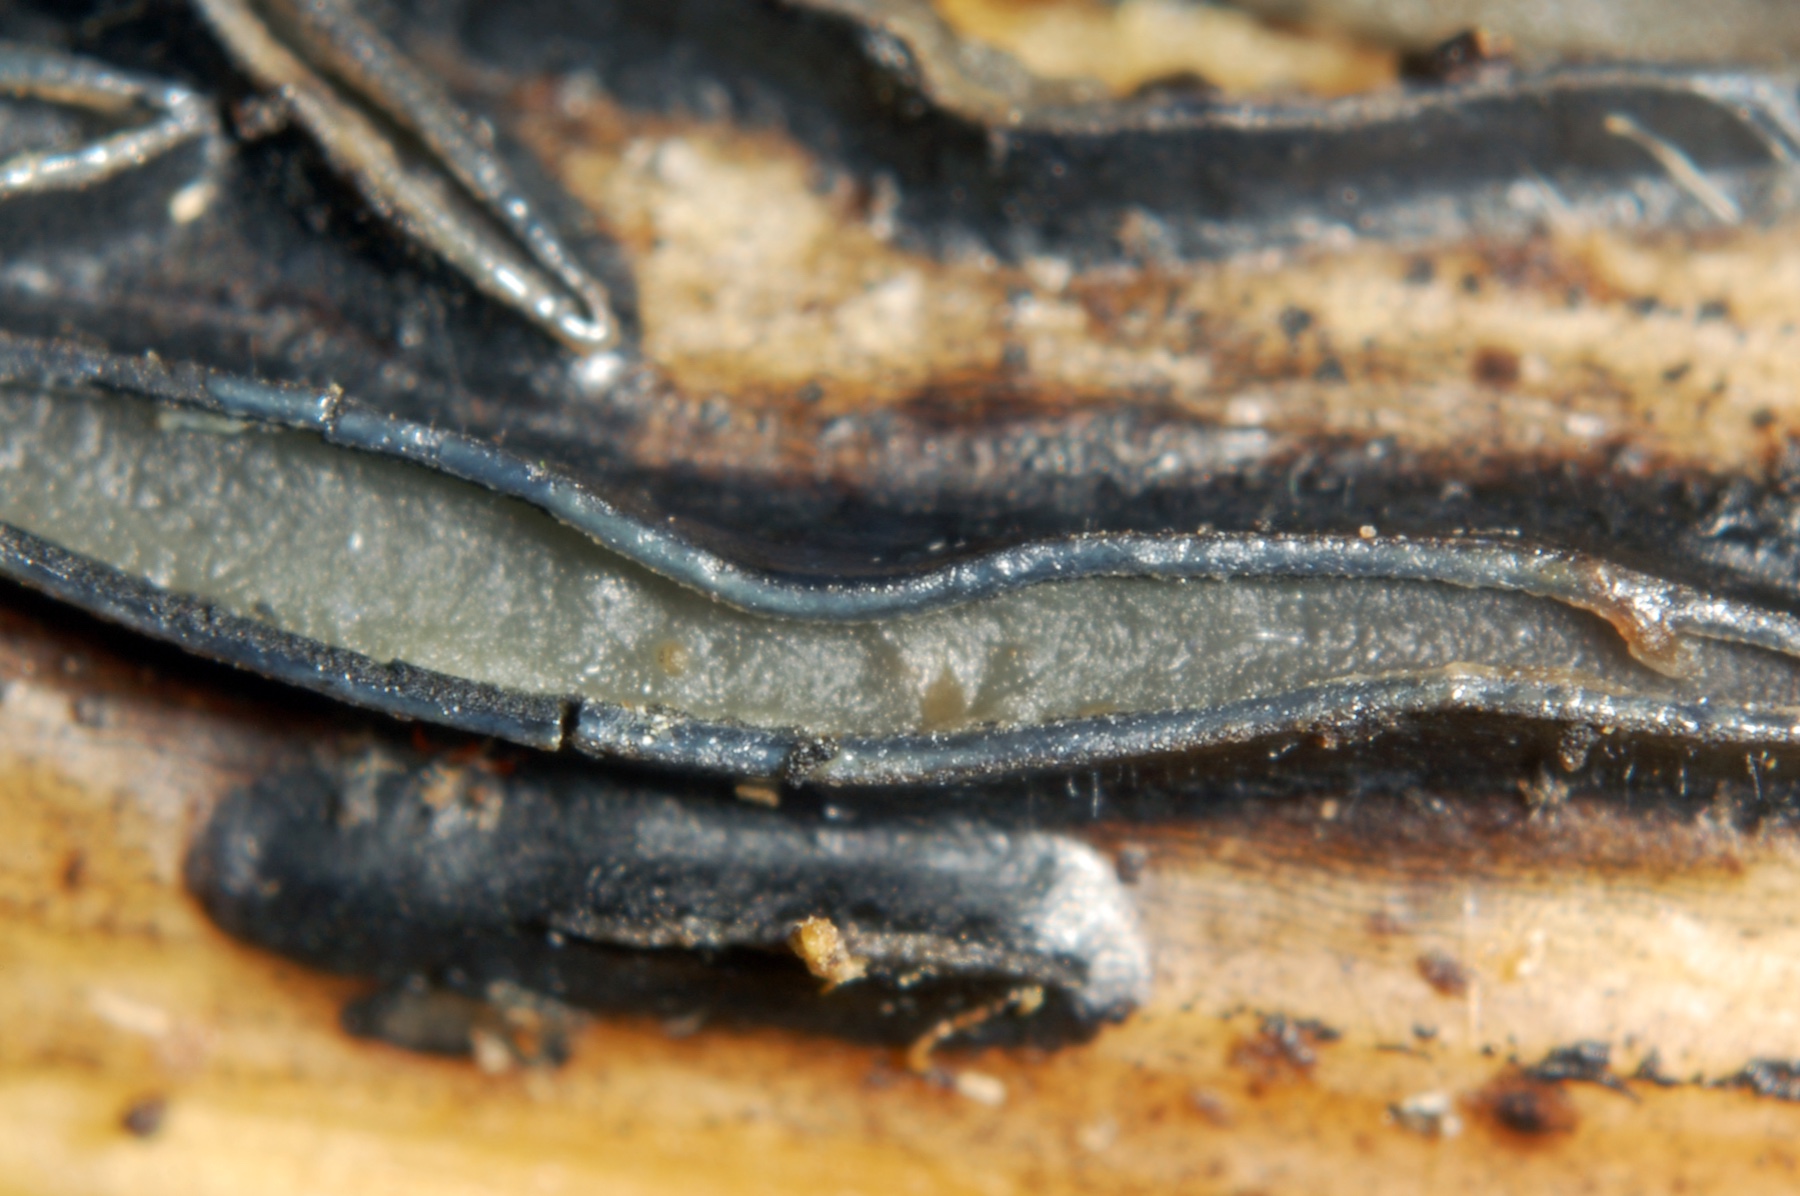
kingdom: Fungi
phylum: Ascomycota
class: Leotiomycetes
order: Rhytismatales
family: Rhytismataceae
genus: Hypoderma
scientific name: Hypoderma rubi
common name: brombær-fureplet
